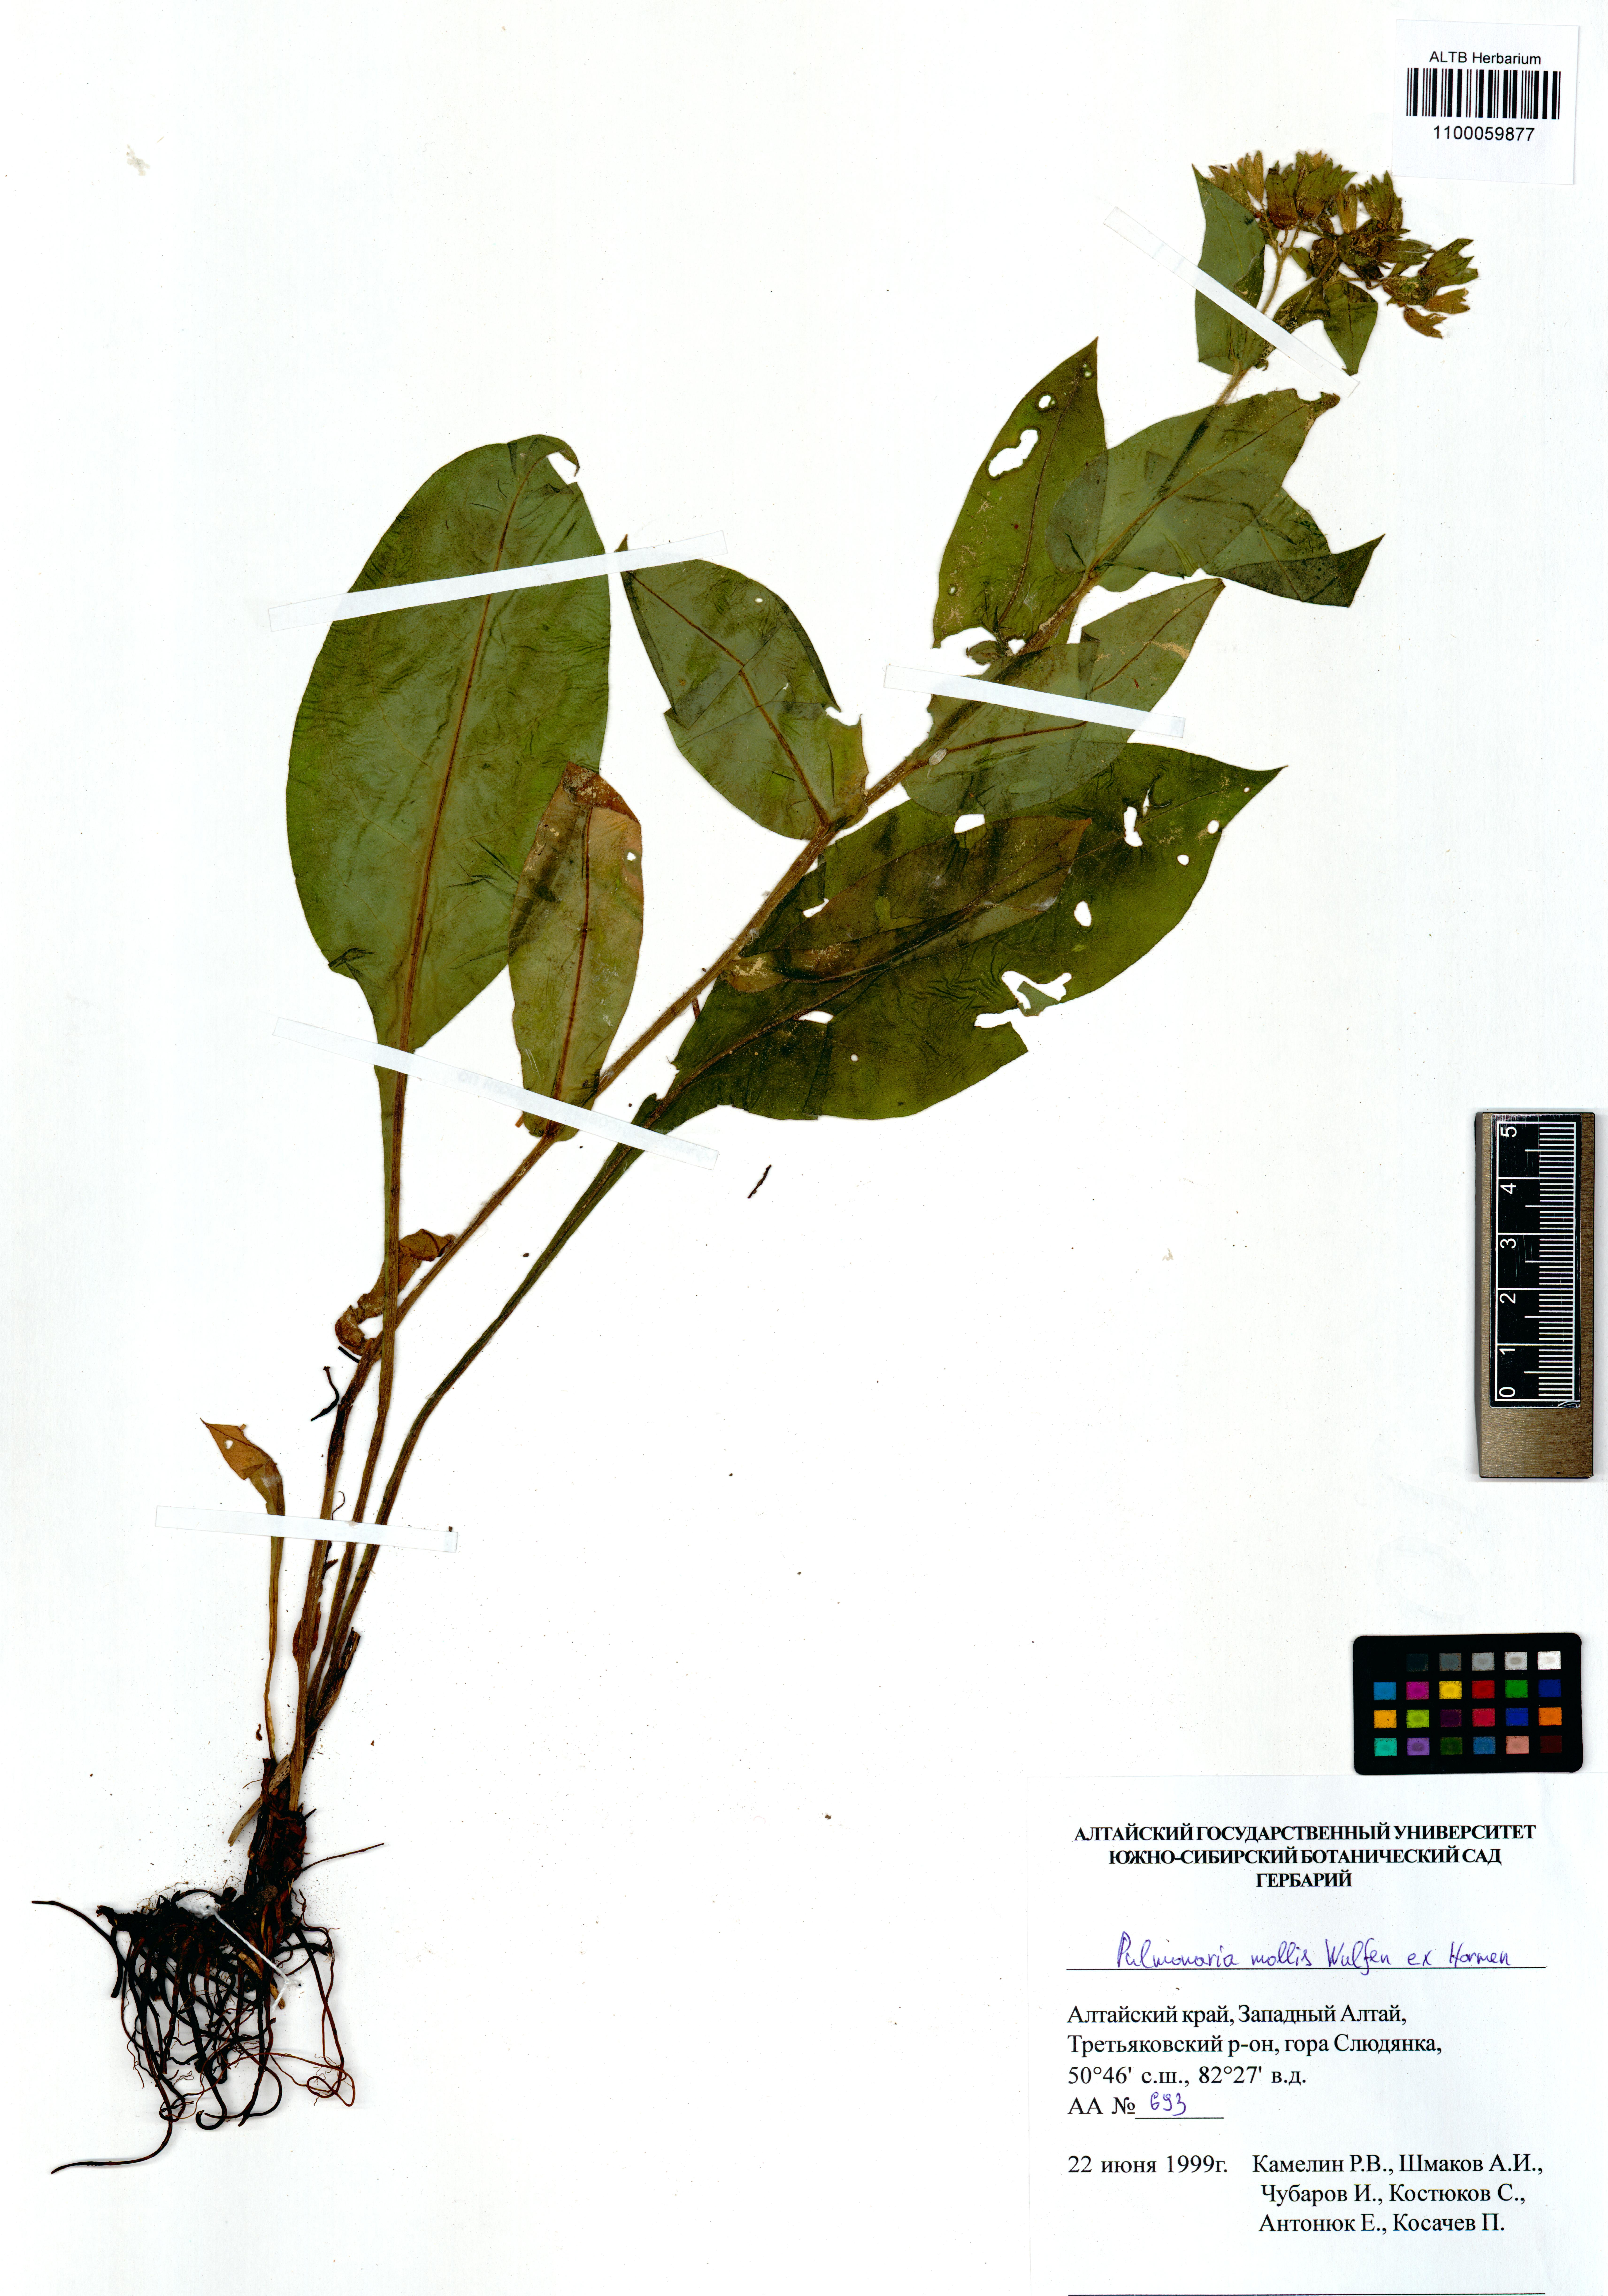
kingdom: Plantae
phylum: Tracheophyta
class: Magnoliopsida
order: Boraginales
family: Boraginaceae
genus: Pulmonaria
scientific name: Pulmonaria mollis
